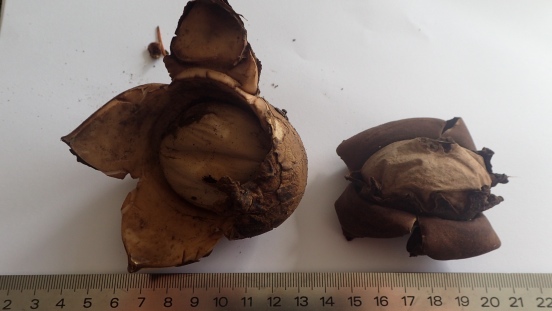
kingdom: Fungi
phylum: Basidiomycota
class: Agaricomycetes
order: Geastrales
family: Geastraceae
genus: Geastrum
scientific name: Geastrum michelianum
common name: kødet stjernebold
